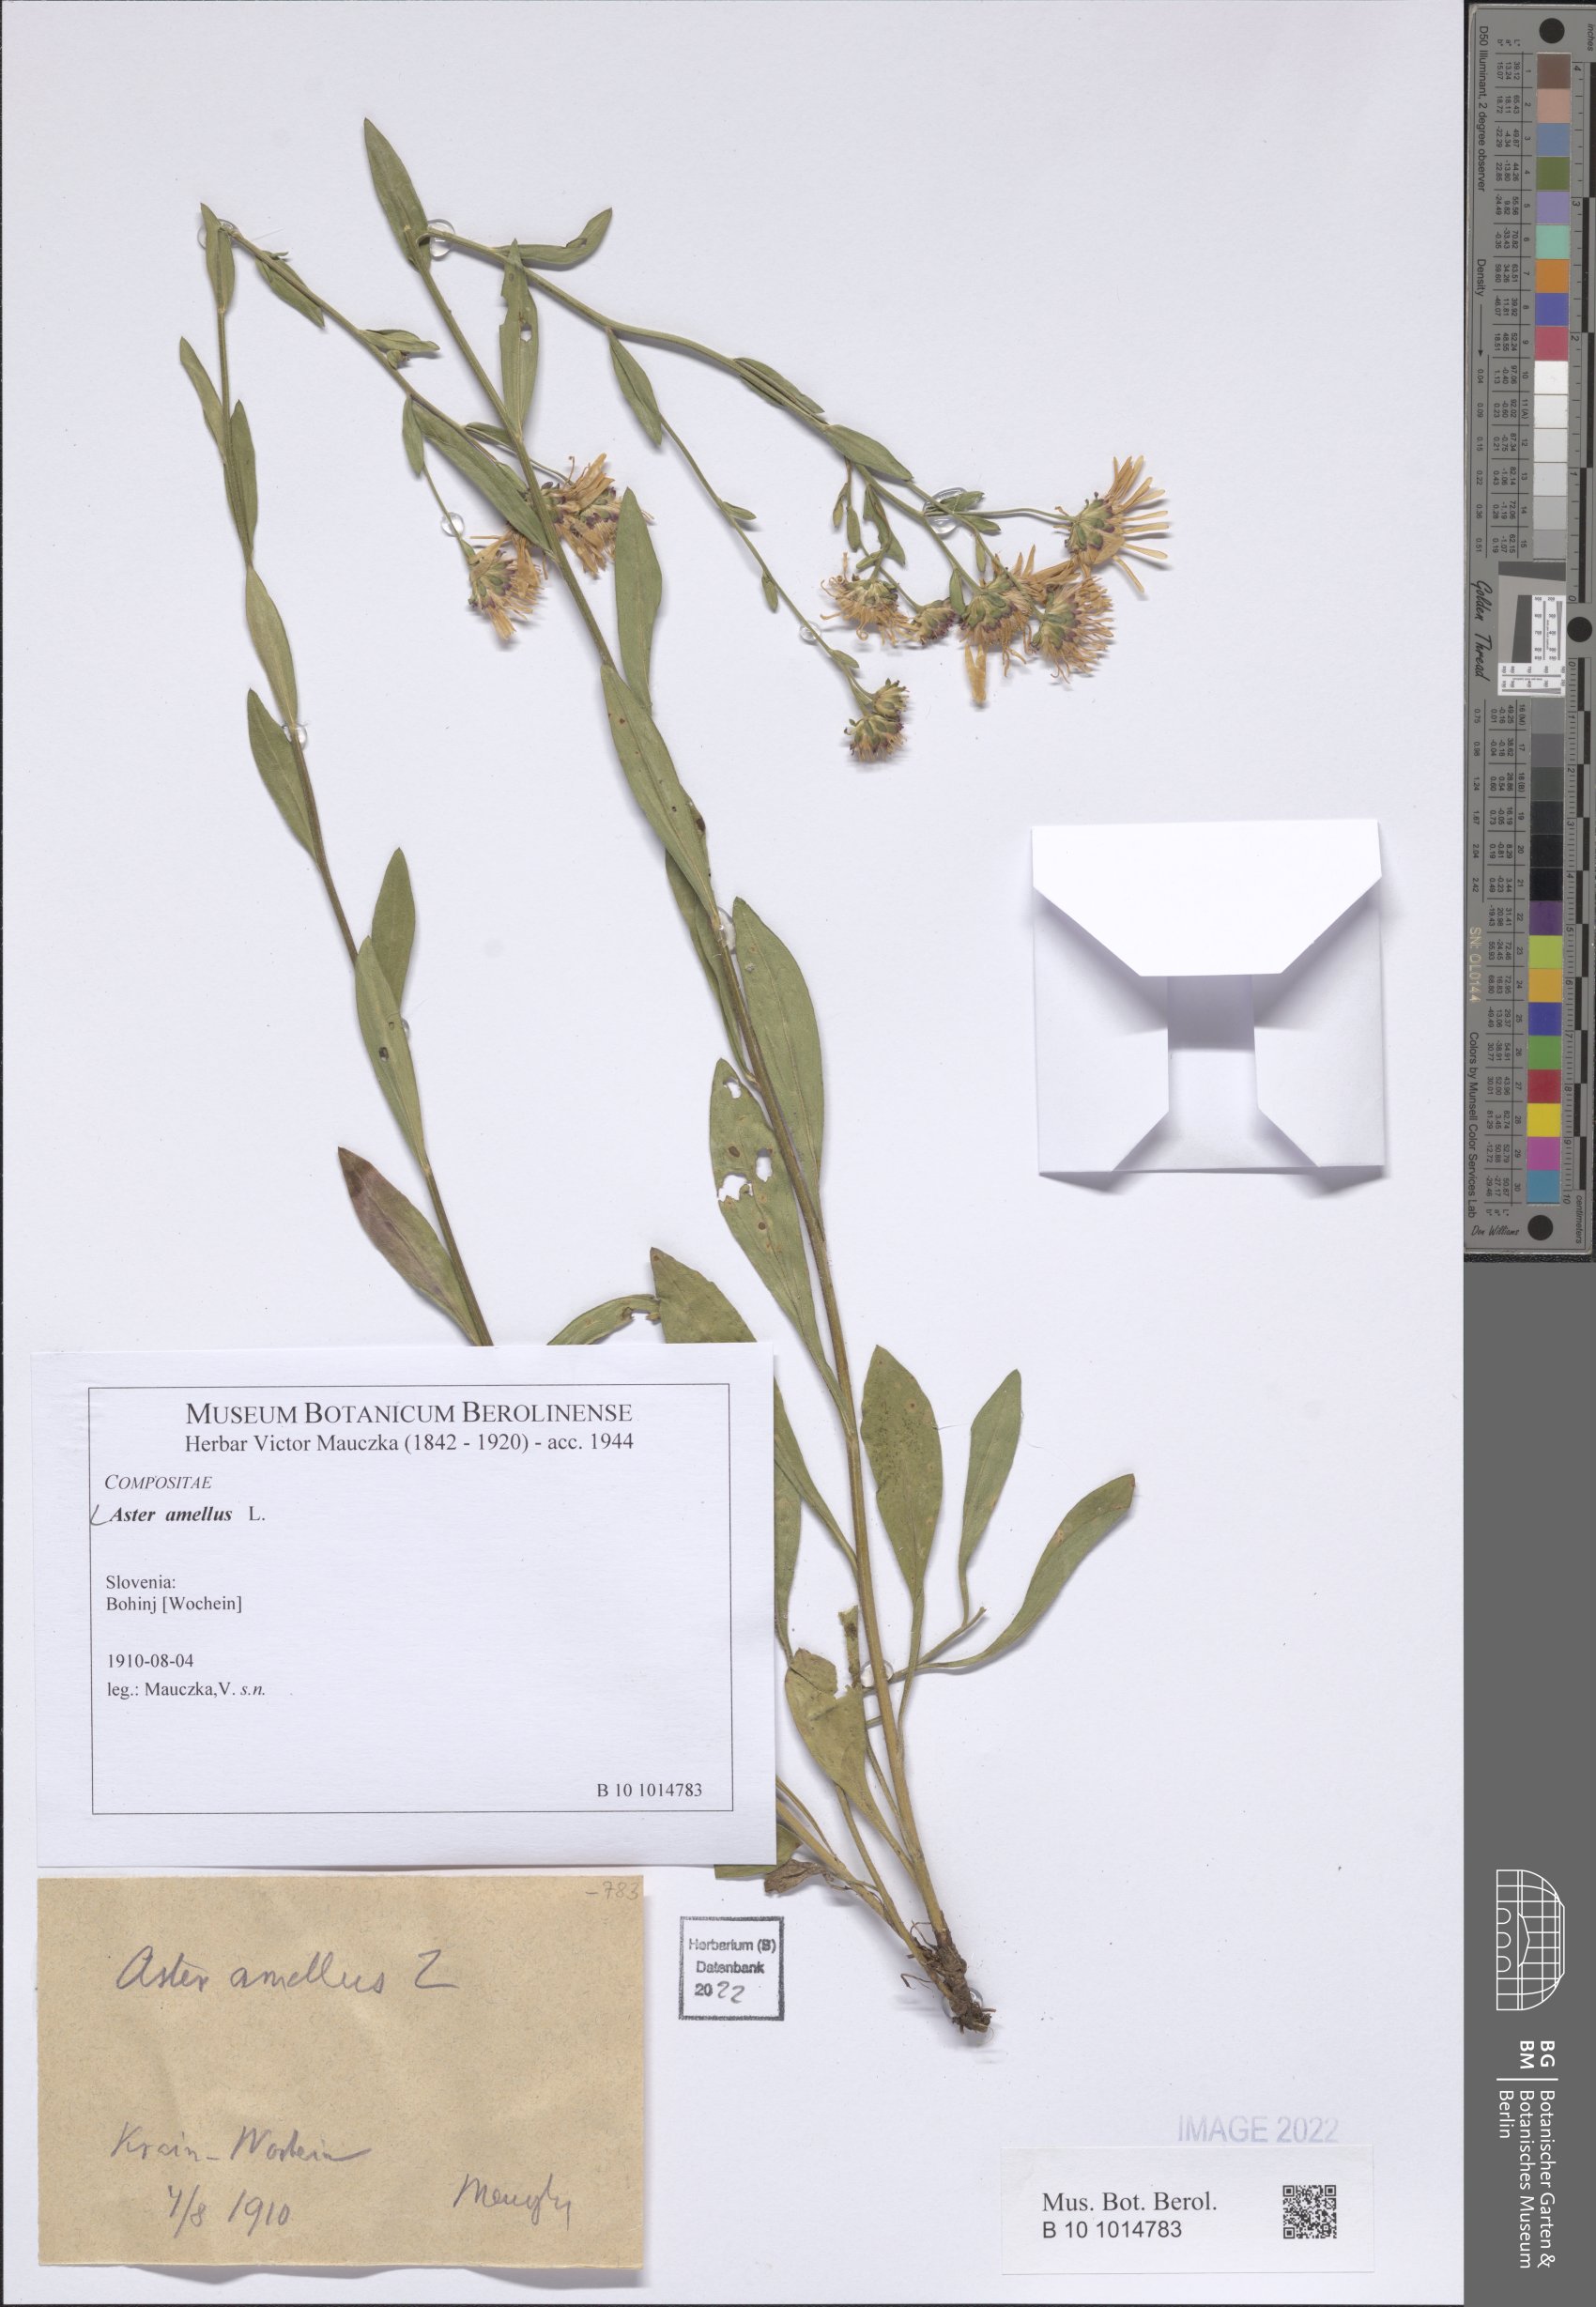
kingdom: Plantae
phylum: Tracheophyta
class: Magnoliopsida
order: Asterales
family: Asteraceae
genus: Aster
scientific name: Aster amellus
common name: European michaelmas daisy
